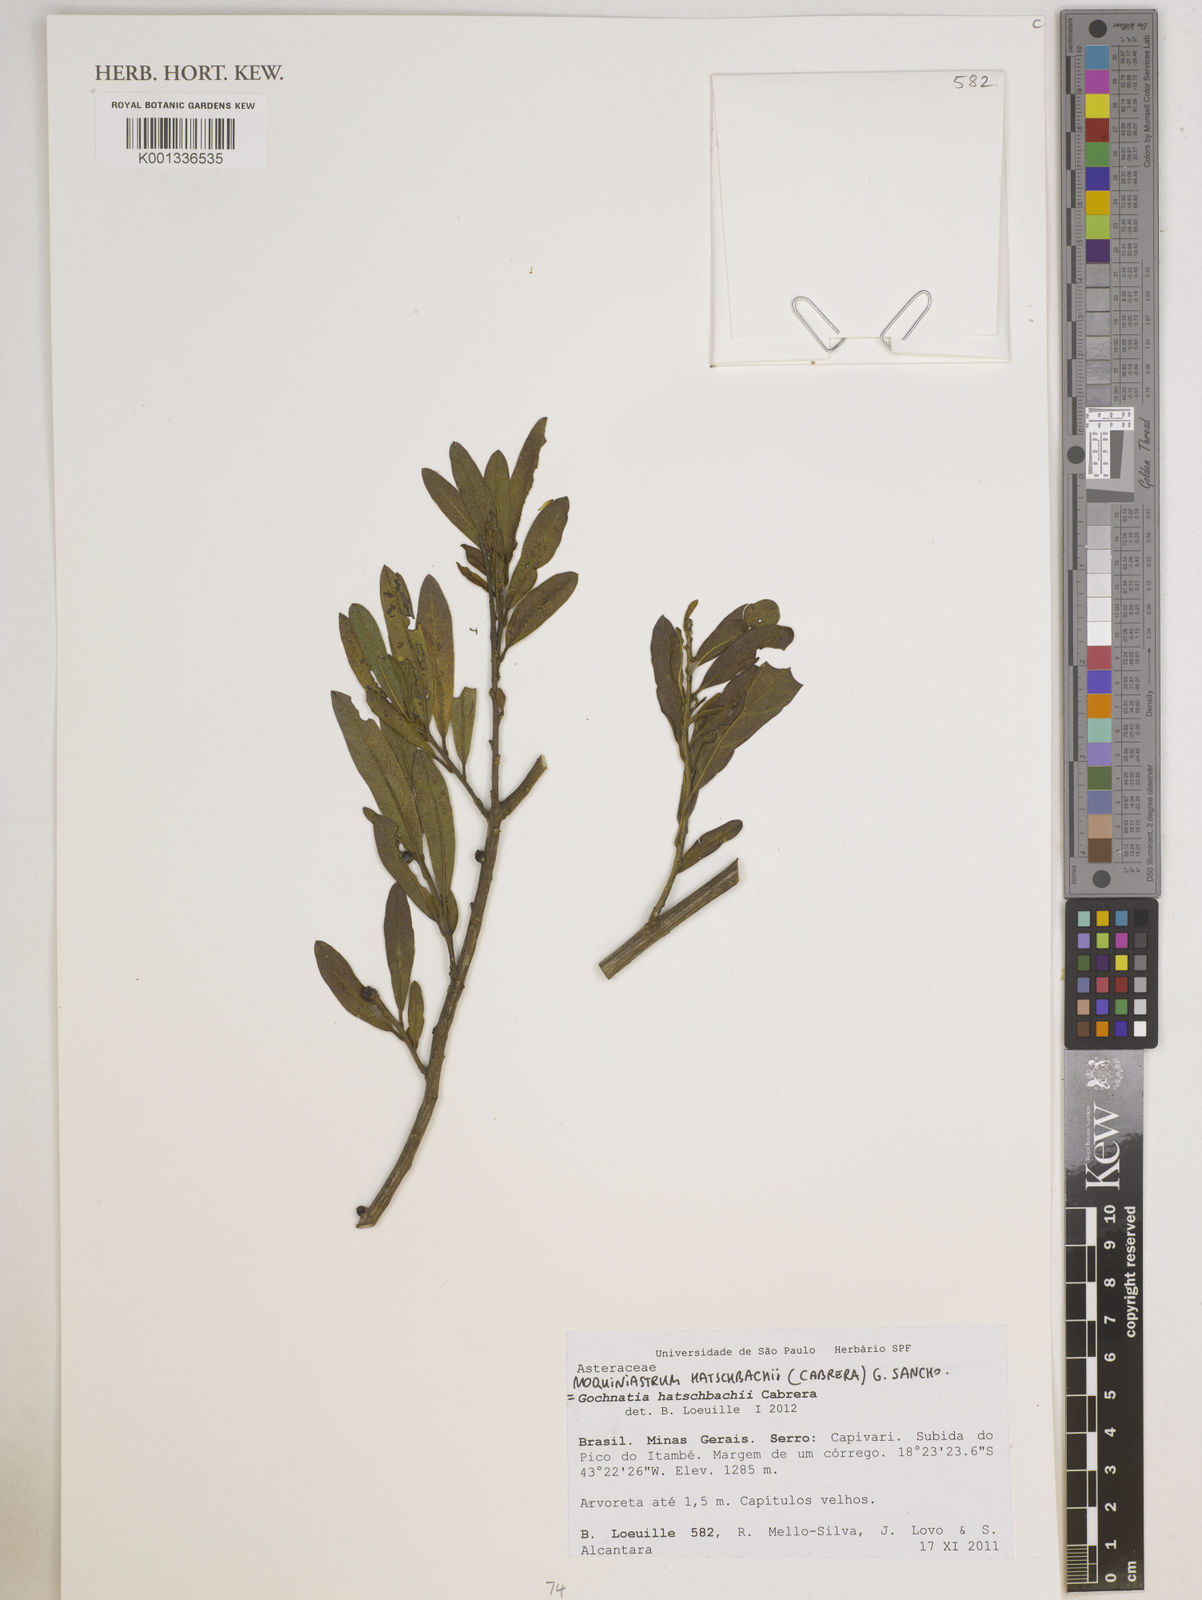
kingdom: Plantae
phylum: Tracheophyta
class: Magnoliopsida
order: Asterales
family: Asteraceae
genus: Moquiniastrum
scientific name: Moquiniastrum hatschbachii
